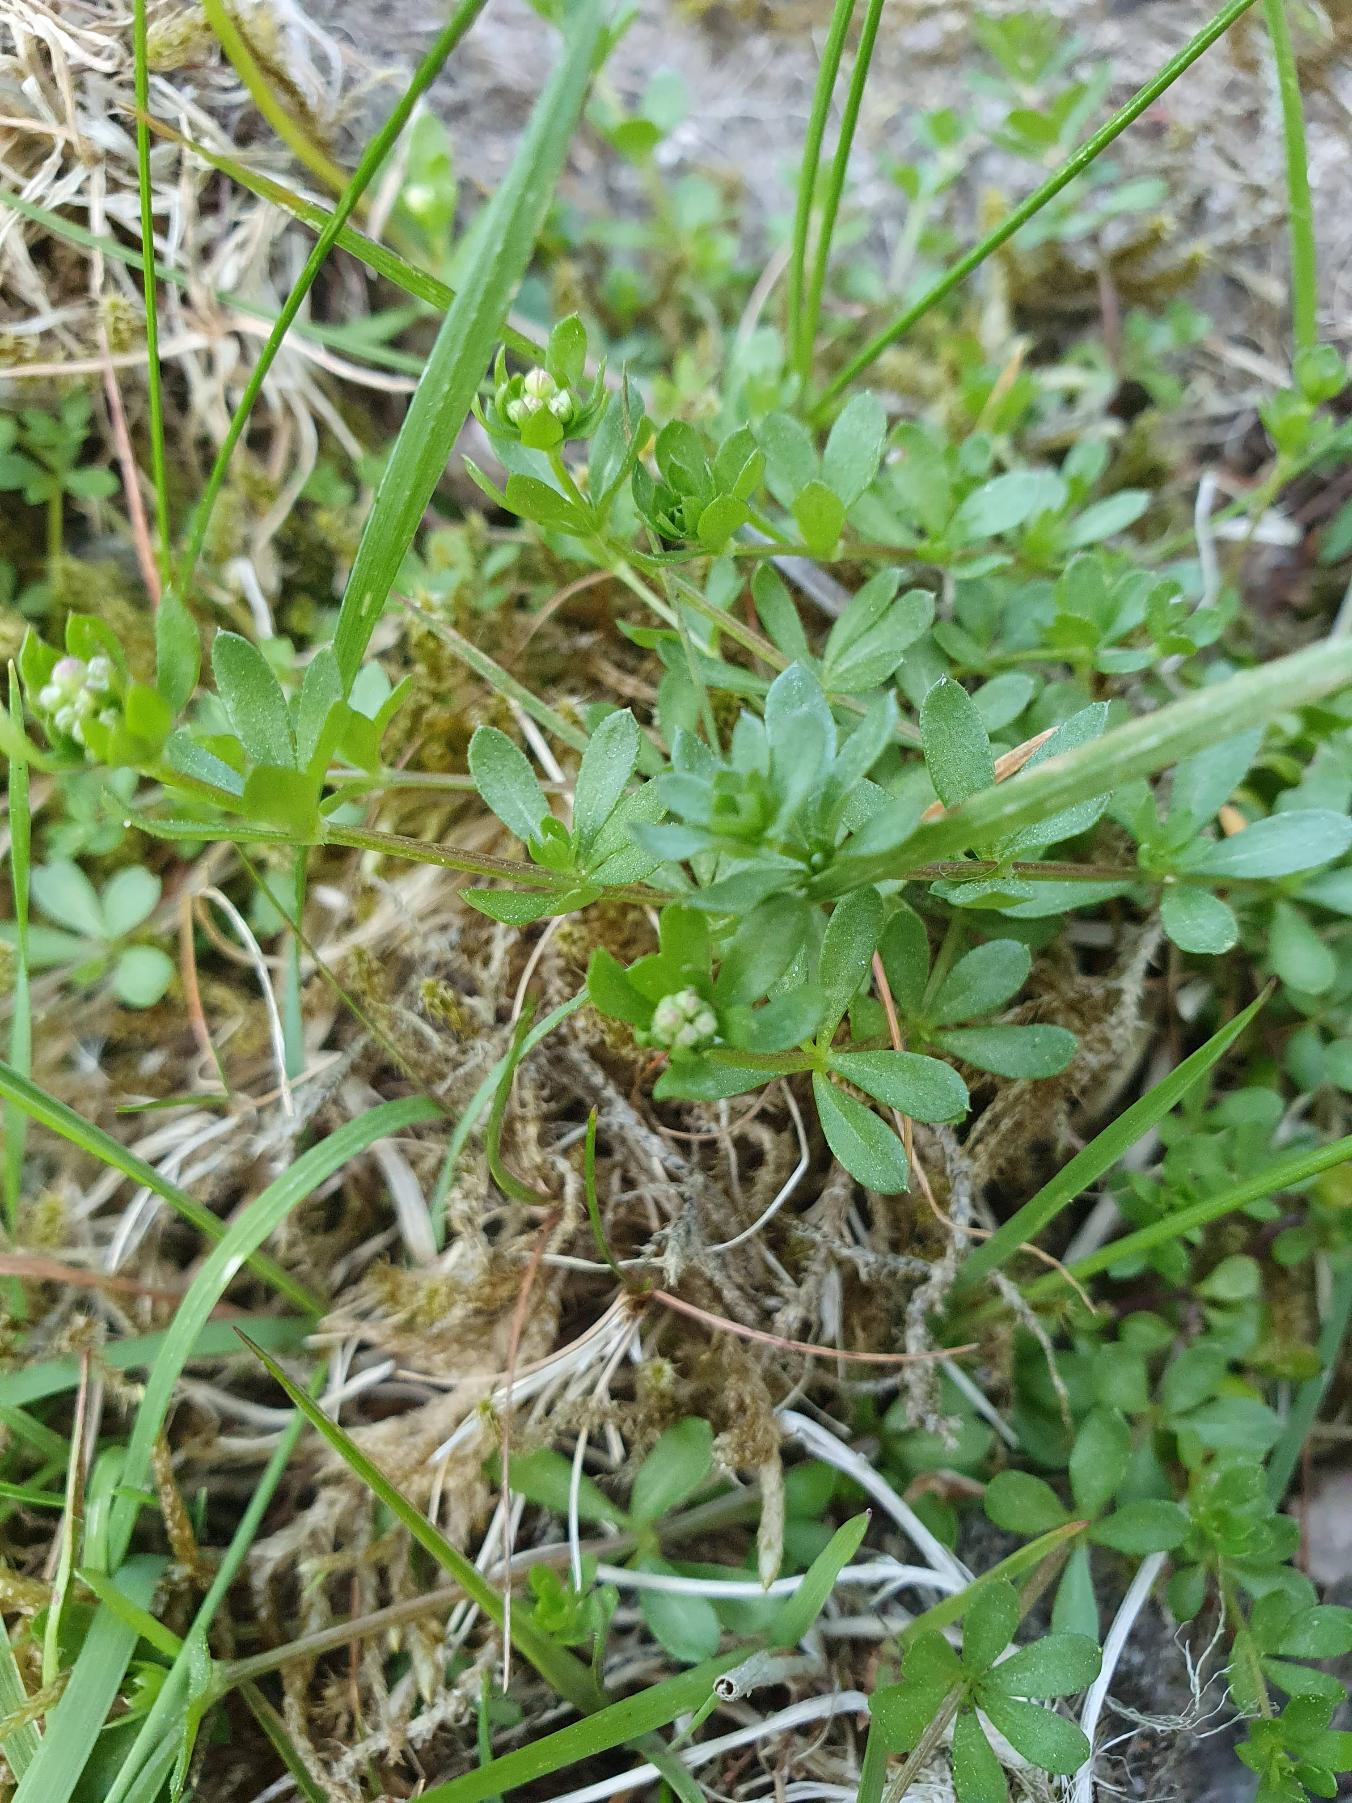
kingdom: Plantae
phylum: Tracheophyta
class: Magnoliopsida
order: Gentianales
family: Rubiaceae
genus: Galium
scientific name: Galium saxatile
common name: Lyng-snerre
